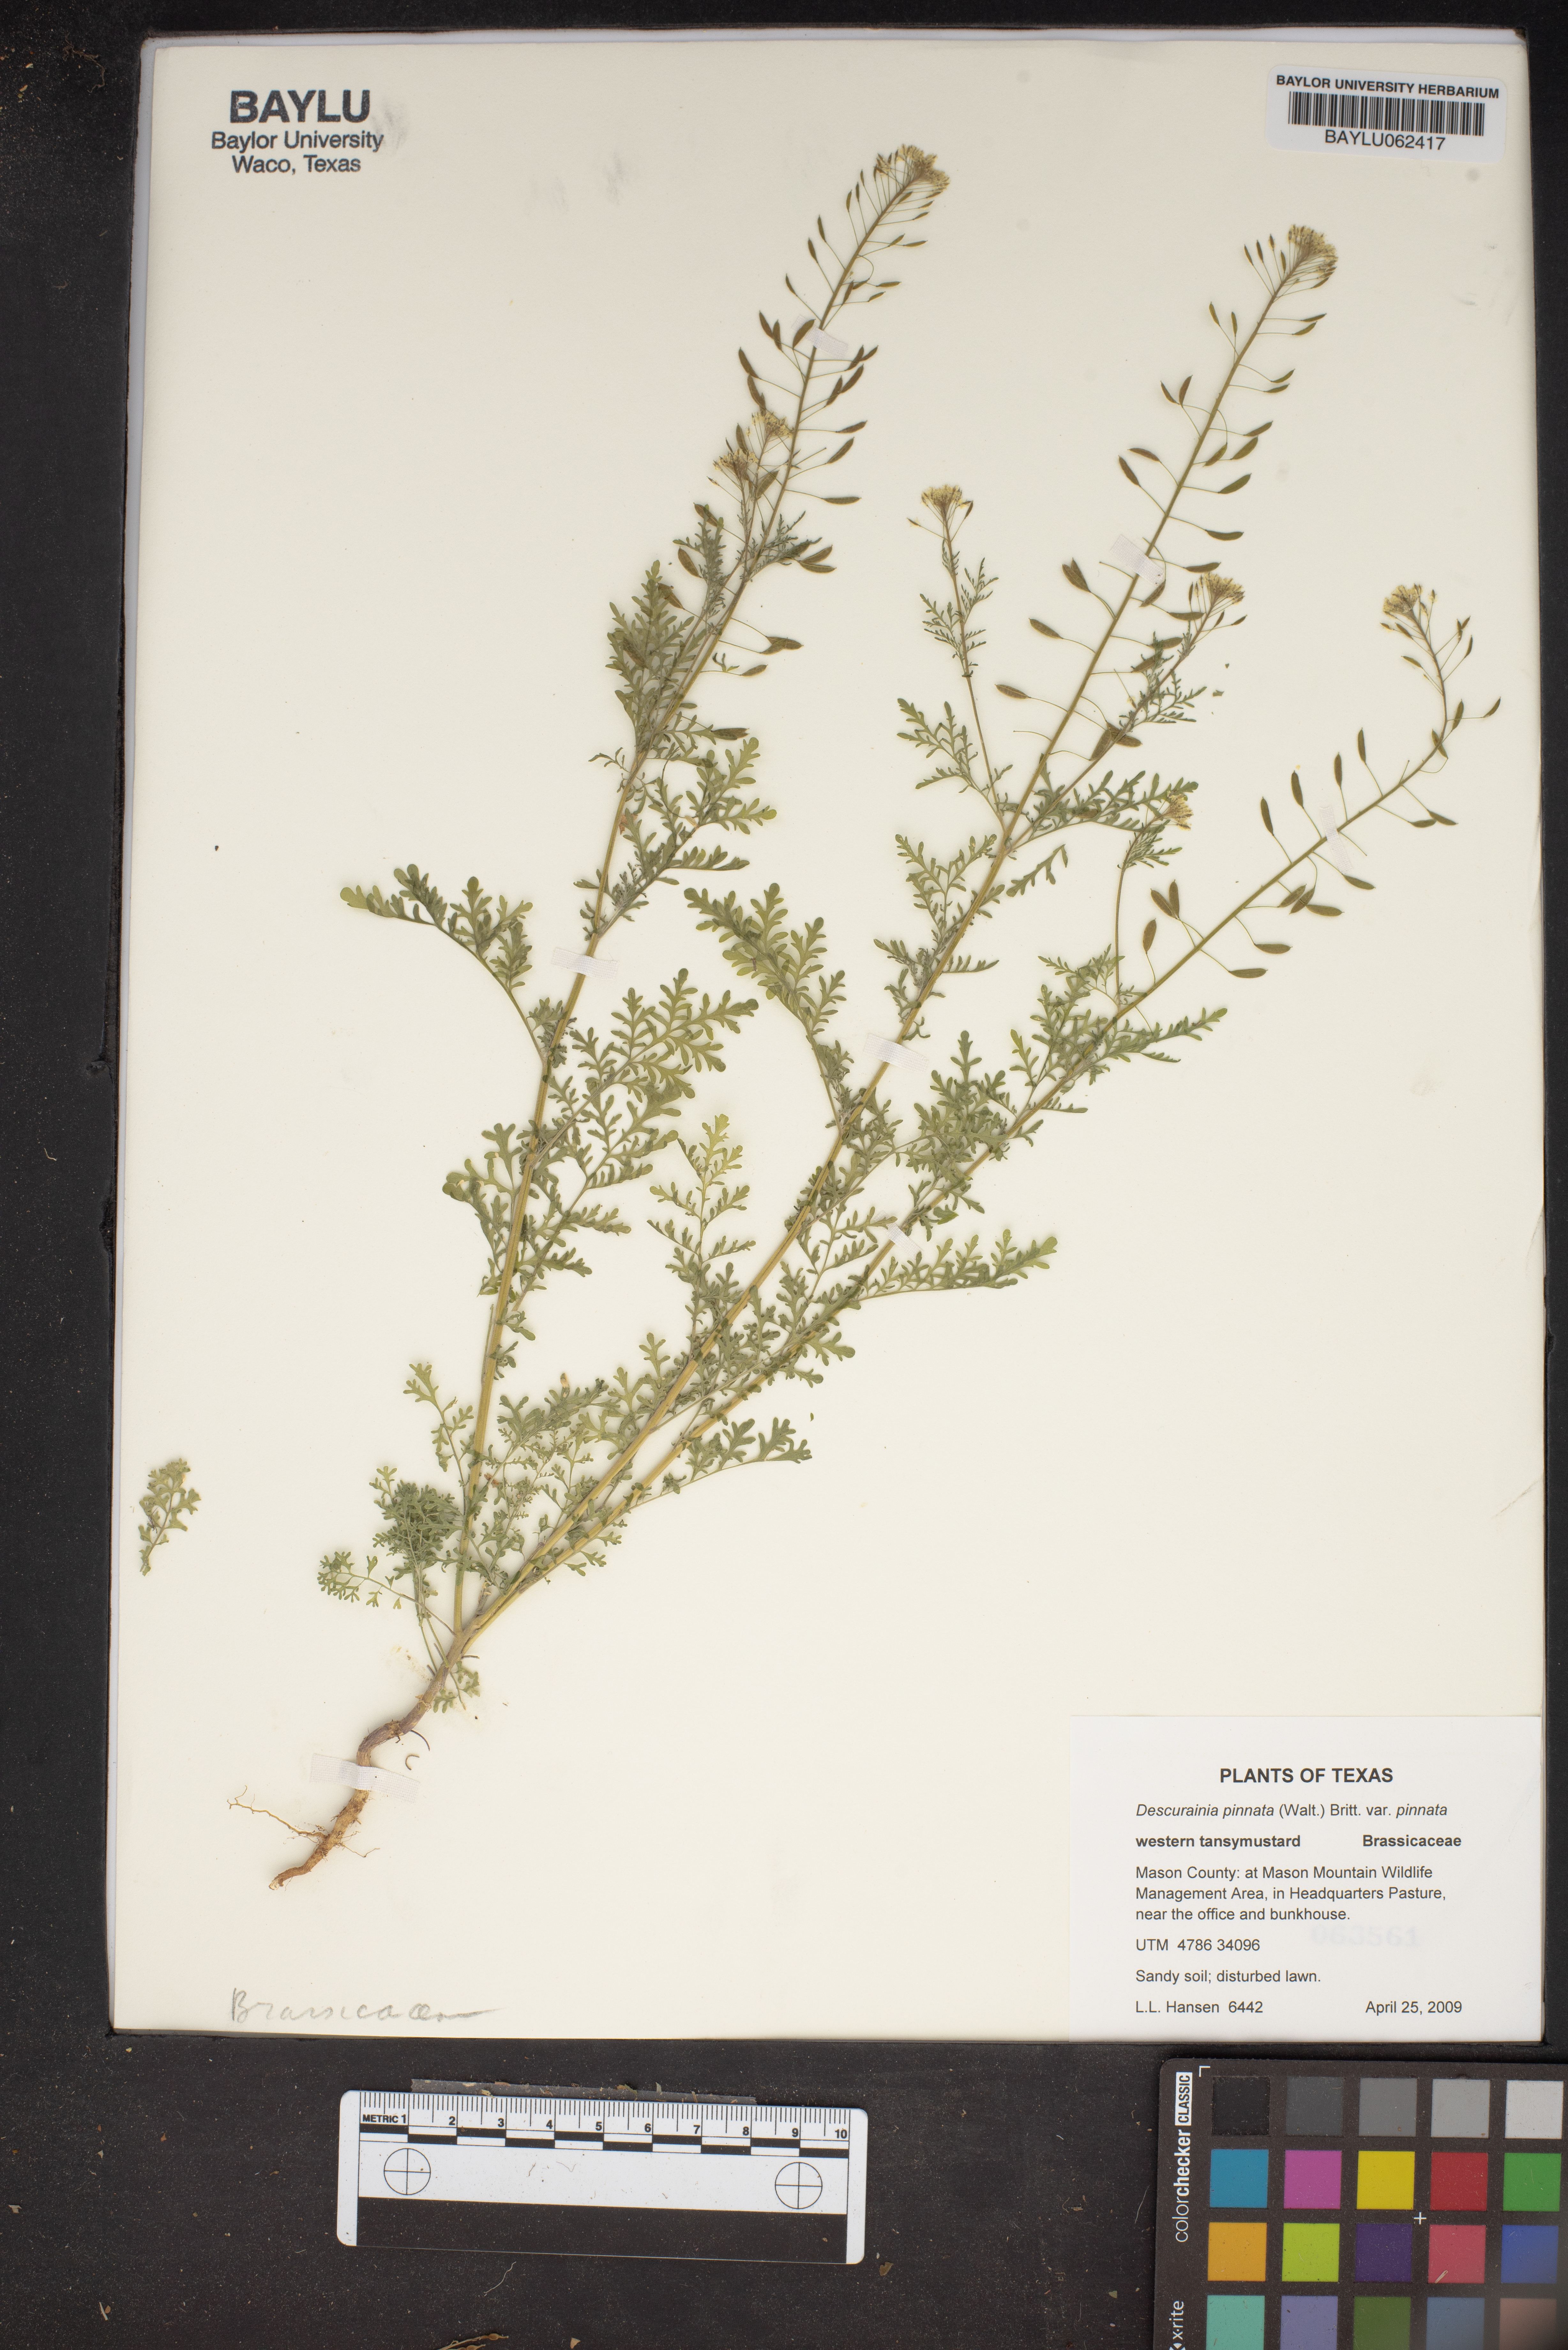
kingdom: Plantae
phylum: Tracheophyta
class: Magnoliopsida
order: Brassicales
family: Brassicaceae
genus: Descurainia
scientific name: Descurainia pinnata
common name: Western tansy mustard
